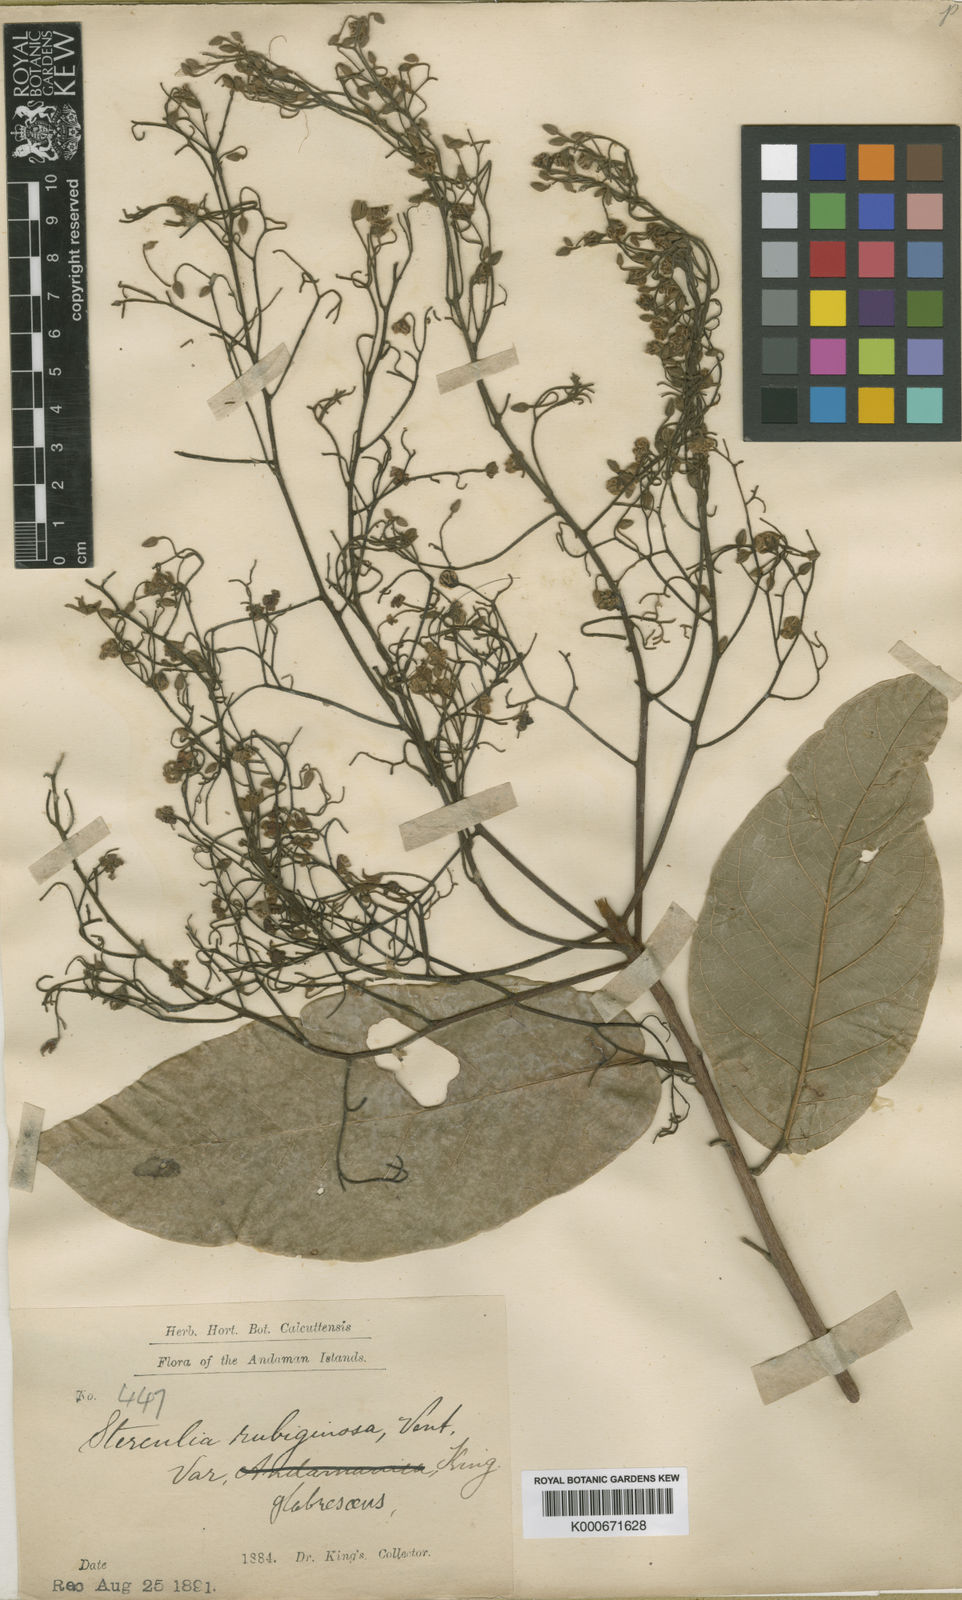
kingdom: Plantae
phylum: Tracheophyta
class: Magnoliopsida
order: Malvales
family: Malvaceae
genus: Sterculia
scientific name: Sterculia rubiginosa
